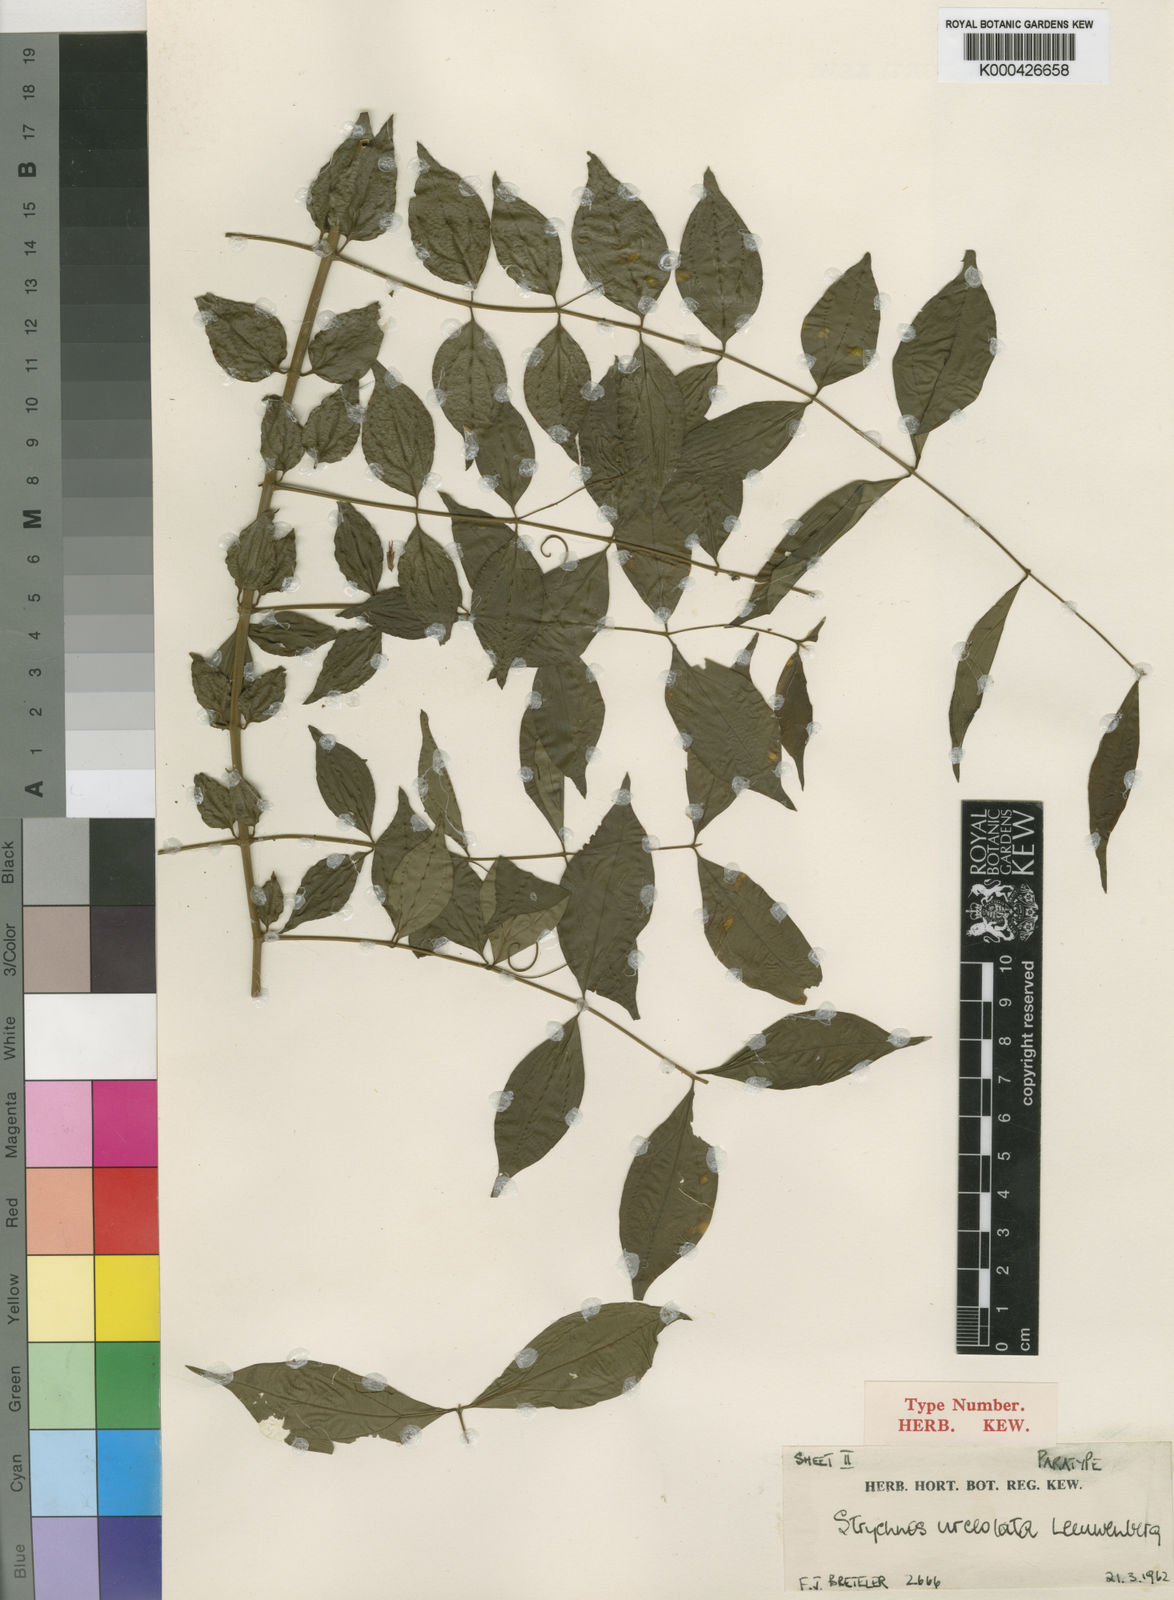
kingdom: Plantae
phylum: Tracheophyta
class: Magnoliopsida
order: Gentianales
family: Loganiaceae
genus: Strychnos
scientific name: Strychnos urceolata
